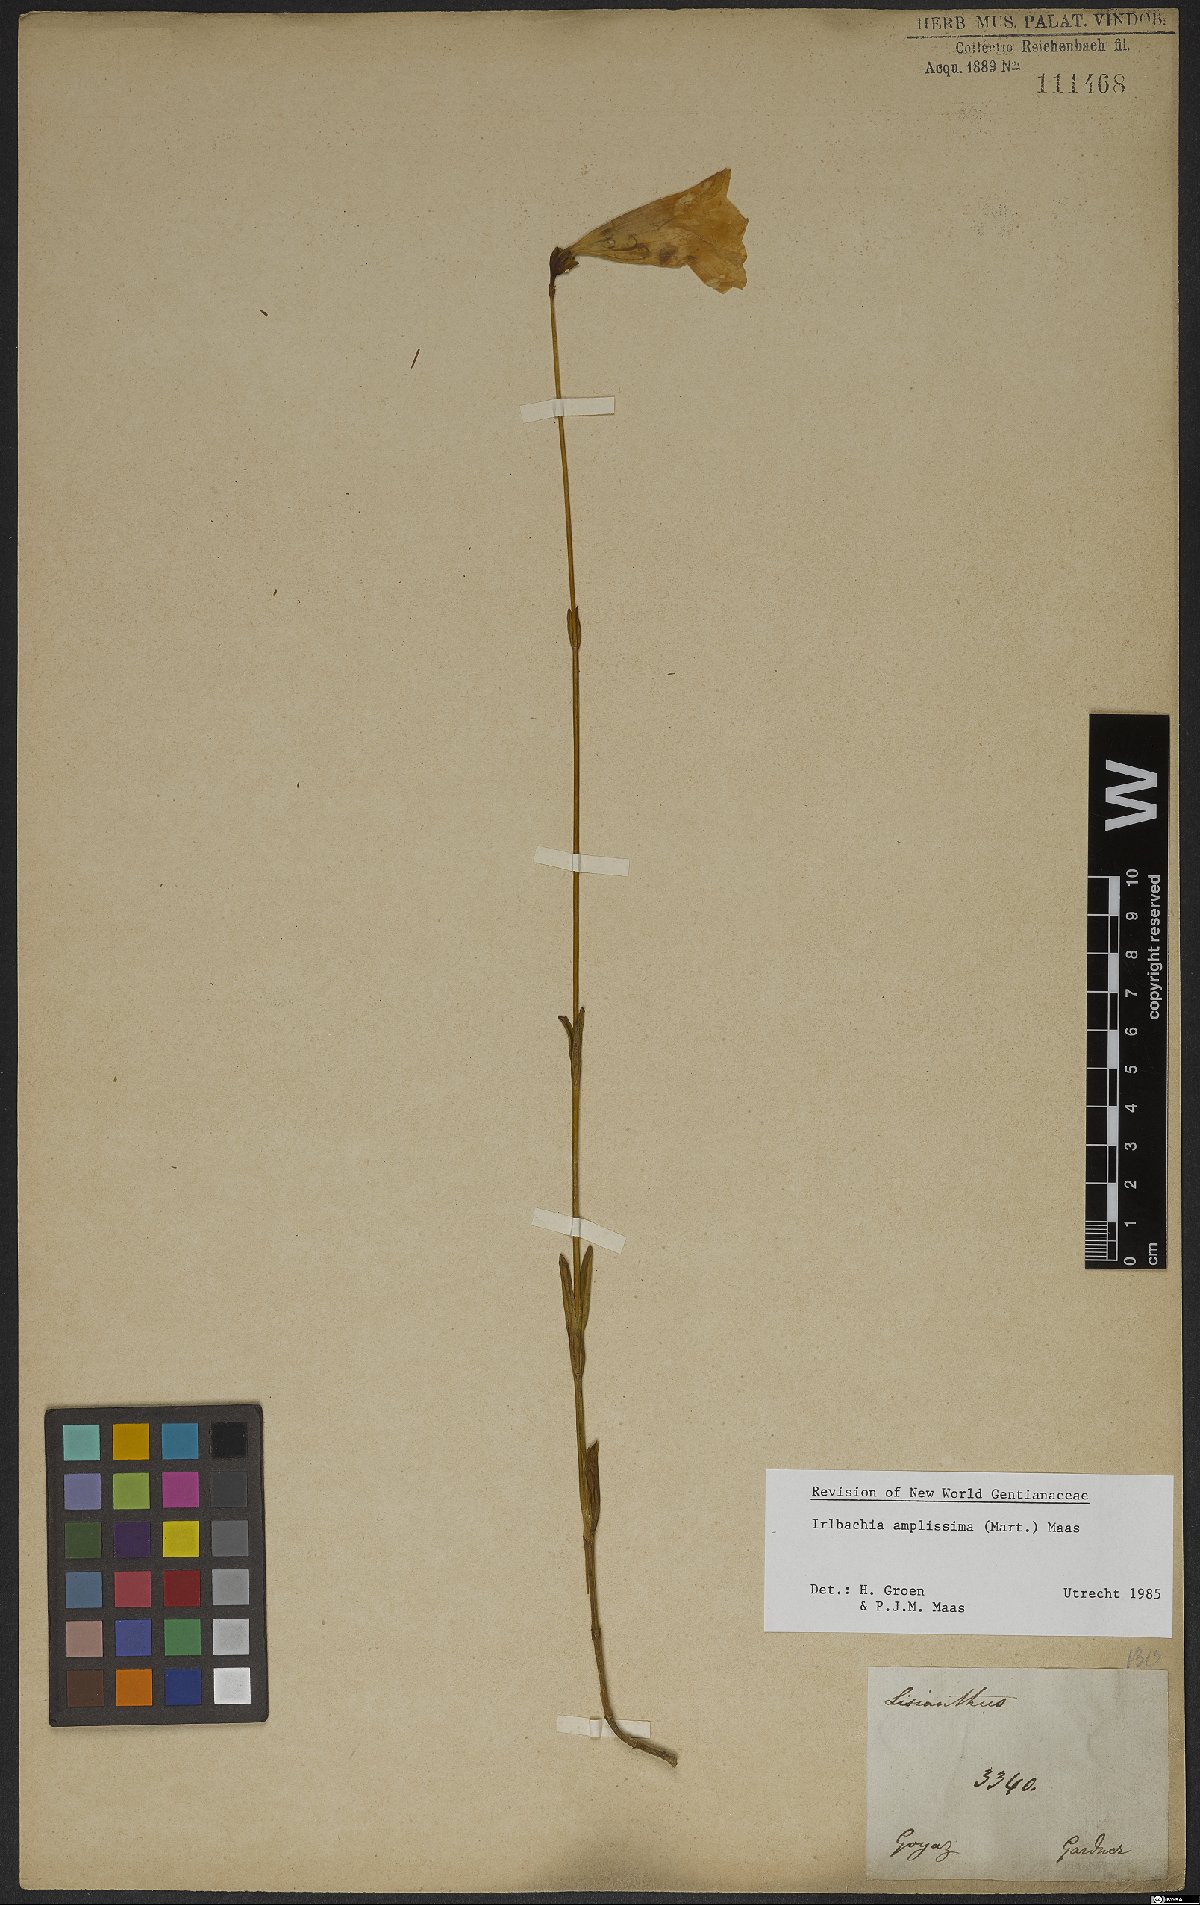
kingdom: Plantae
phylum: Tracheophyta
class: Magnoliopsida
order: Gentianales
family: Gentianaceae
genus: Calolisianthus
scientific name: Calolisianthus amplissimus
